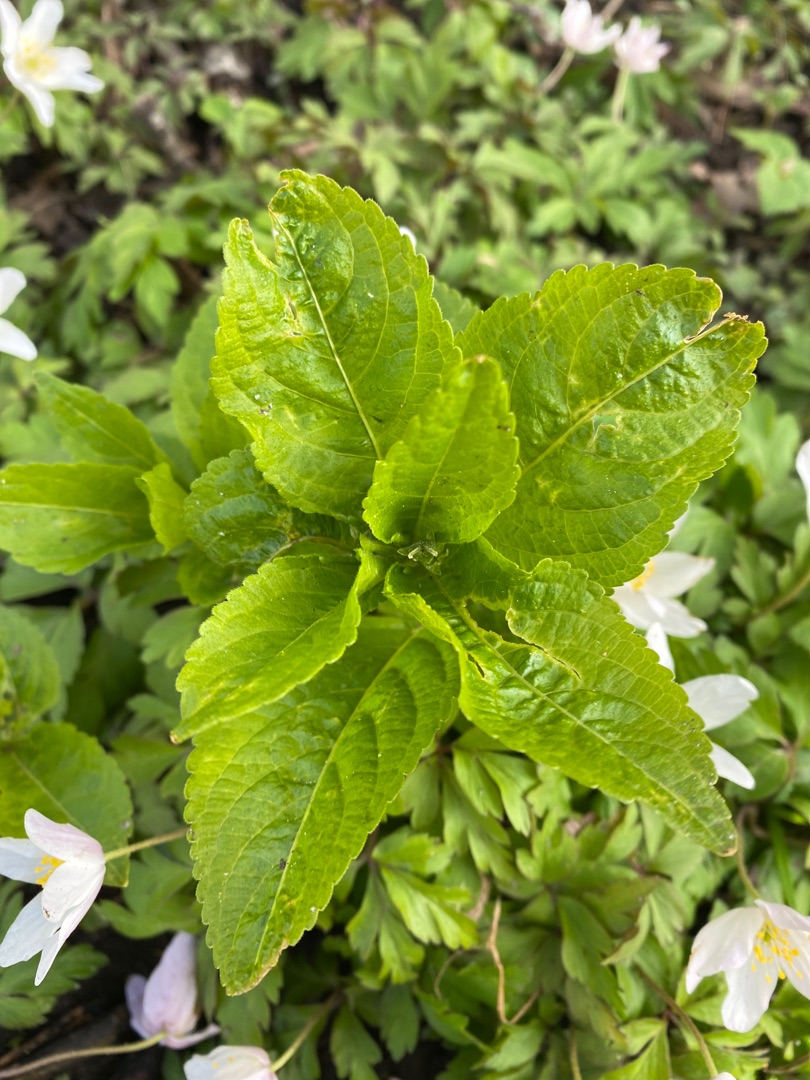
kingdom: Plantae
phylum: Tracheophyta
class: Magnoliopsida
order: Malpighiales
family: Euphorbiaceae
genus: Mercurialis
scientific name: Mercurialis perennis
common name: Almindelig bingelurt
